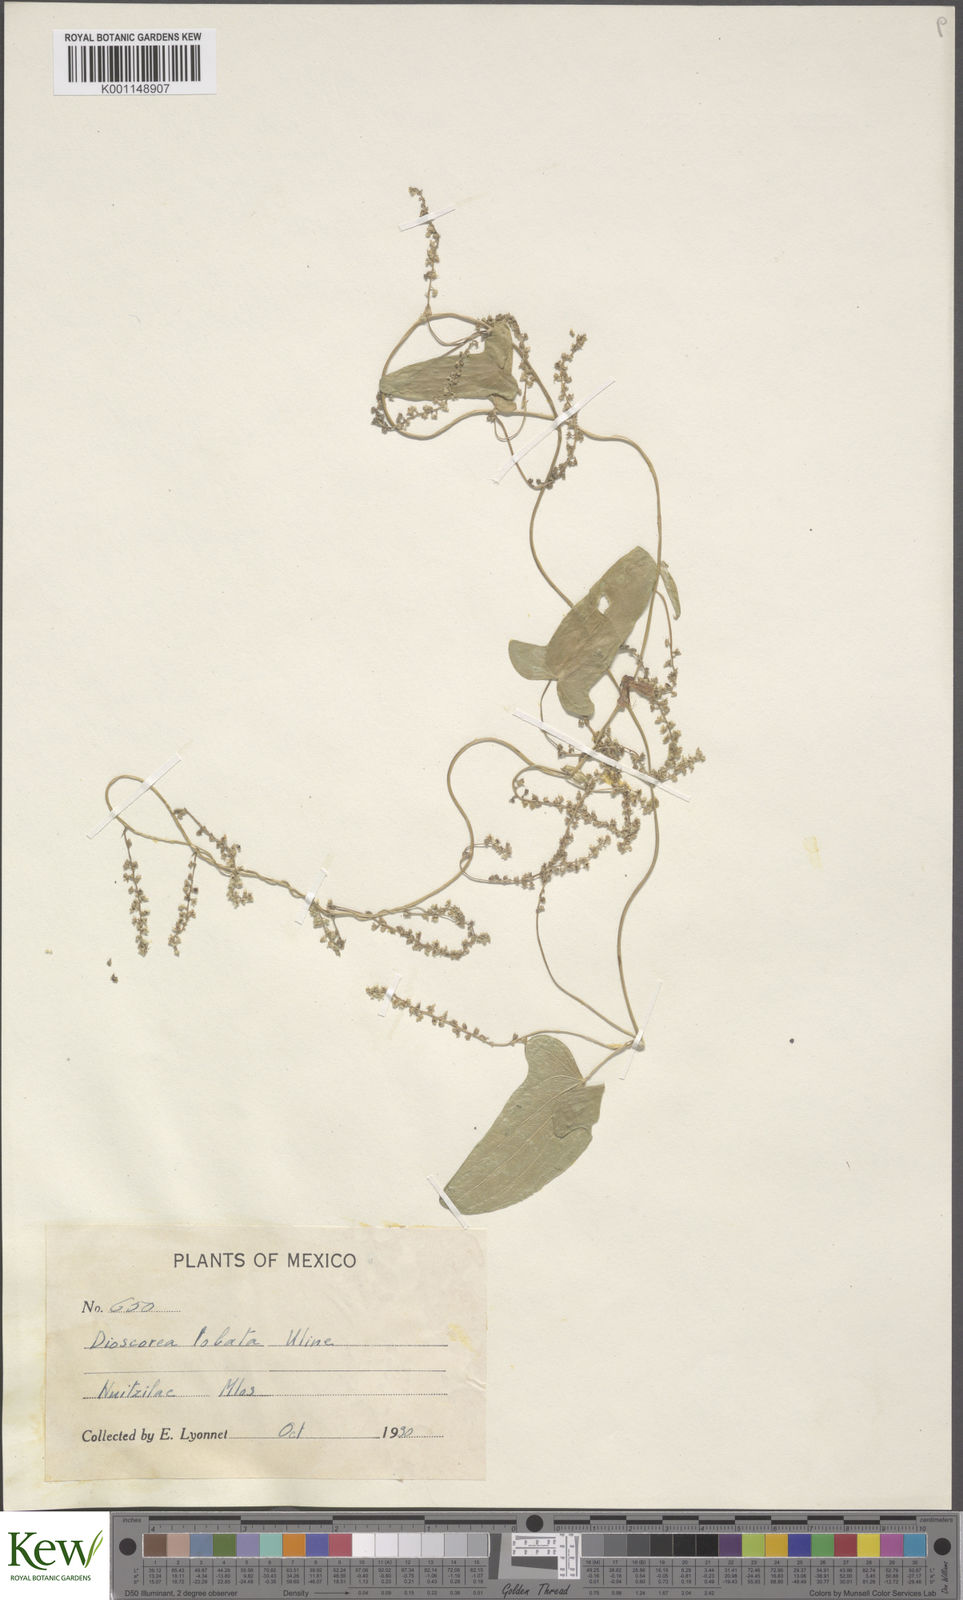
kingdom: Plantae
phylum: Tracheophyta
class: Liliopsida
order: Dioscoreales
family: Dioscoreaceae
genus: Dioscorea
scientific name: Dioscorea galeottiana
